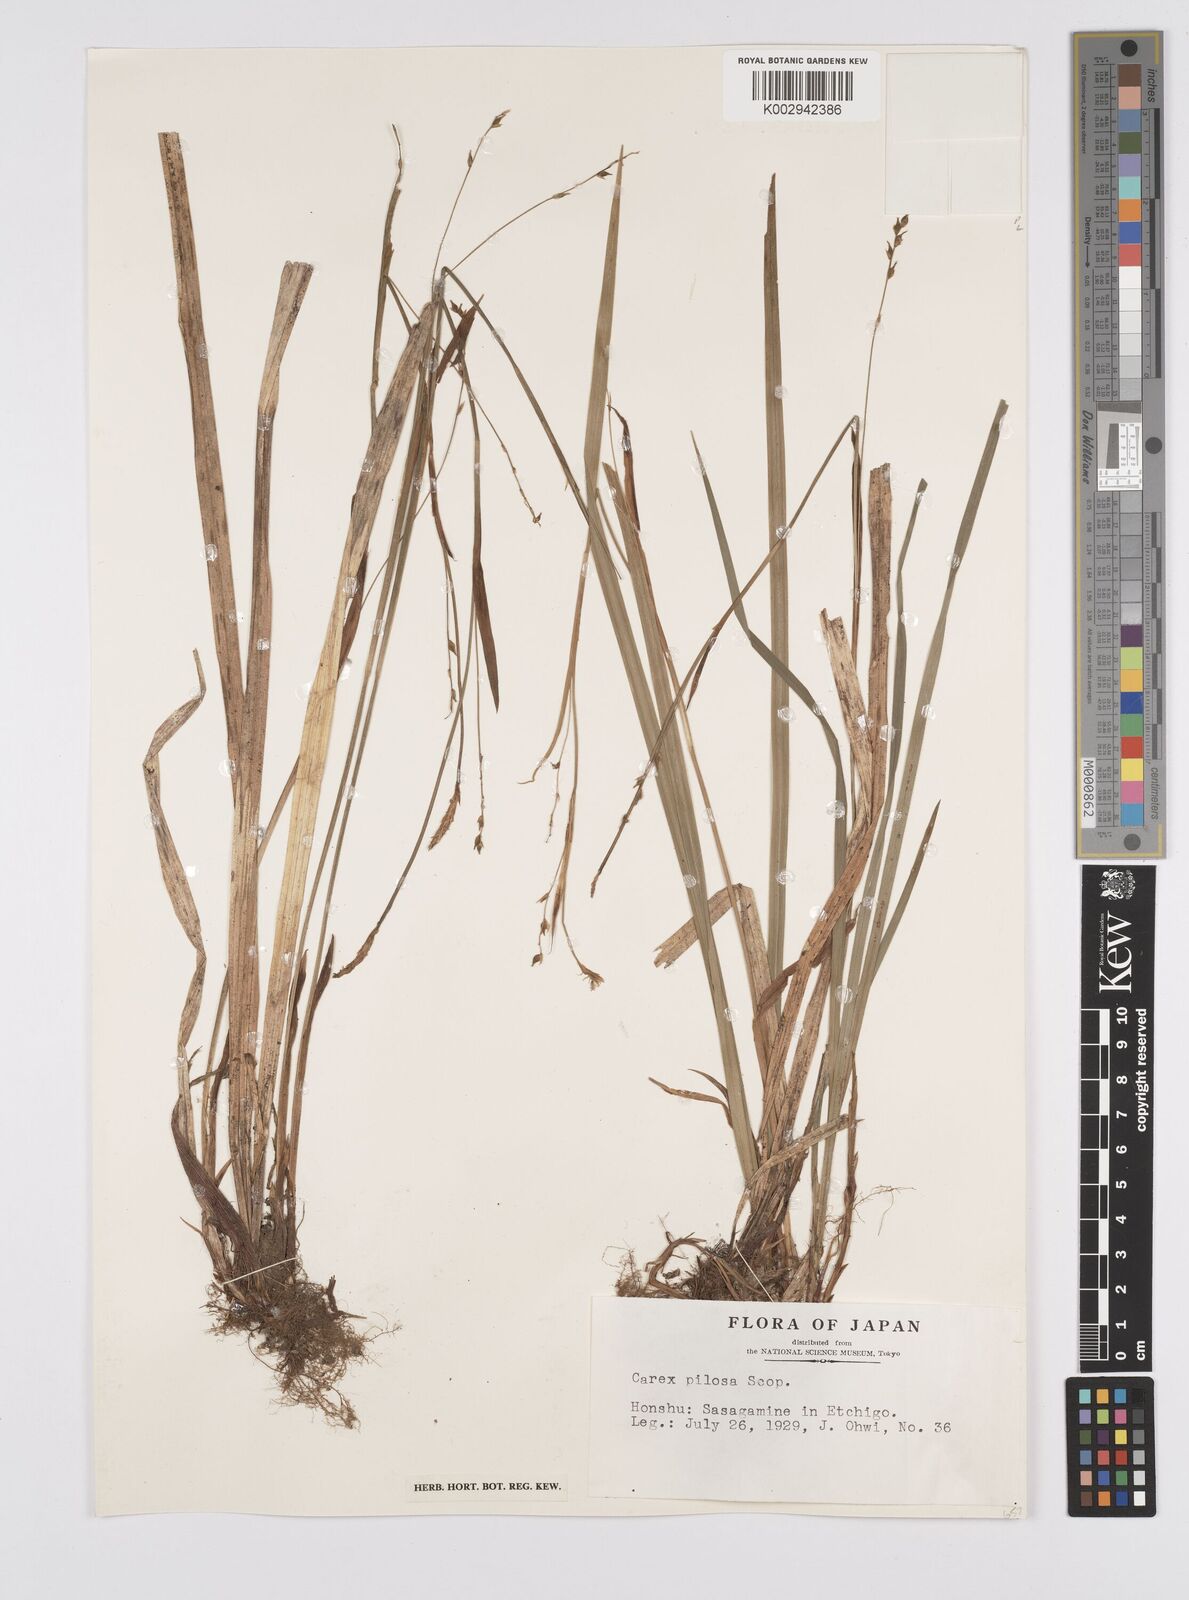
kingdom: Plantae
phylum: Tracheophyta
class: Liliopsida
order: Poales
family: Cyperaceae
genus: Carex
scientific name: Carex pilosa
